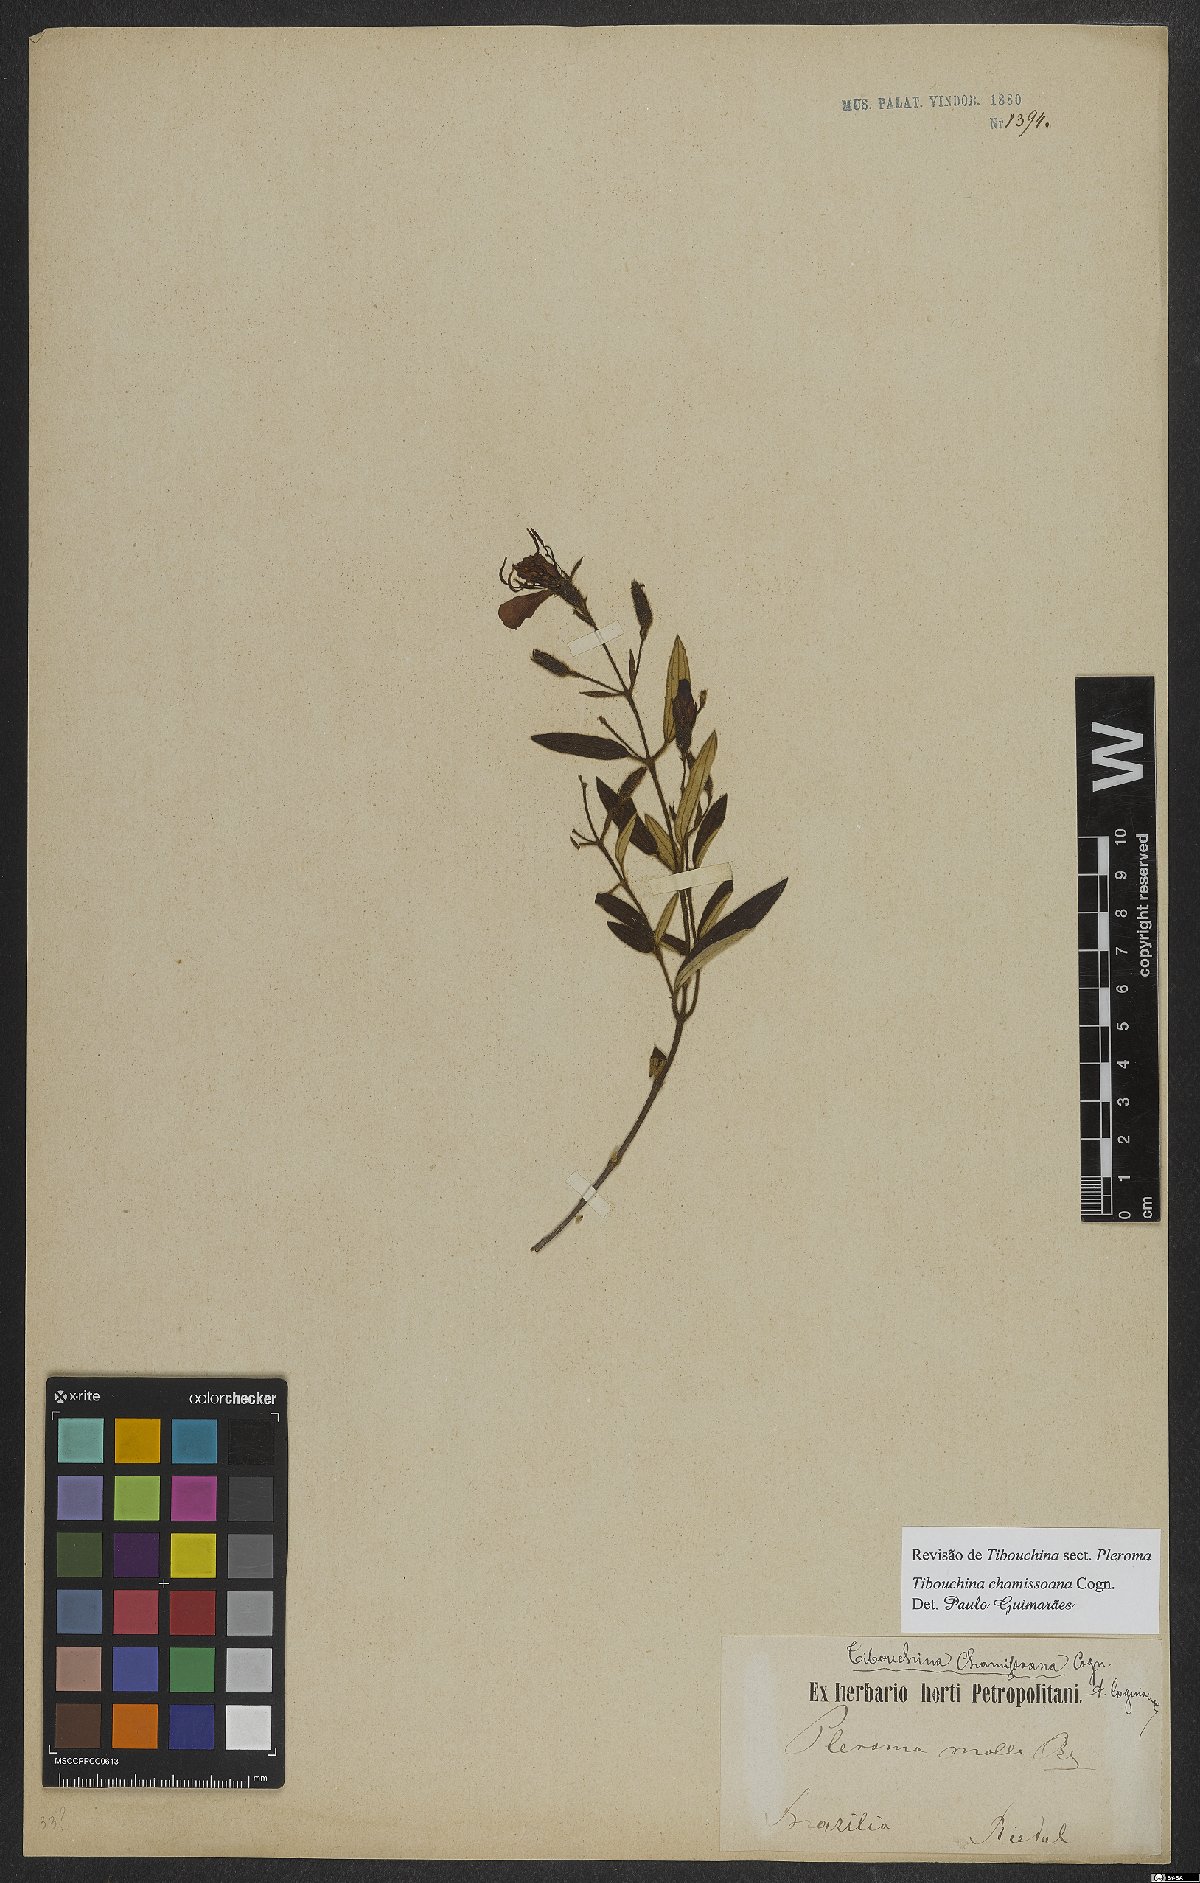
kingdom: Plantae
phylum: Tracheophyta
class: Magnoliopsida
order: Myrtales
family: Melastomataceae
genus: Pleroma
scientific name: Pleroma molle
